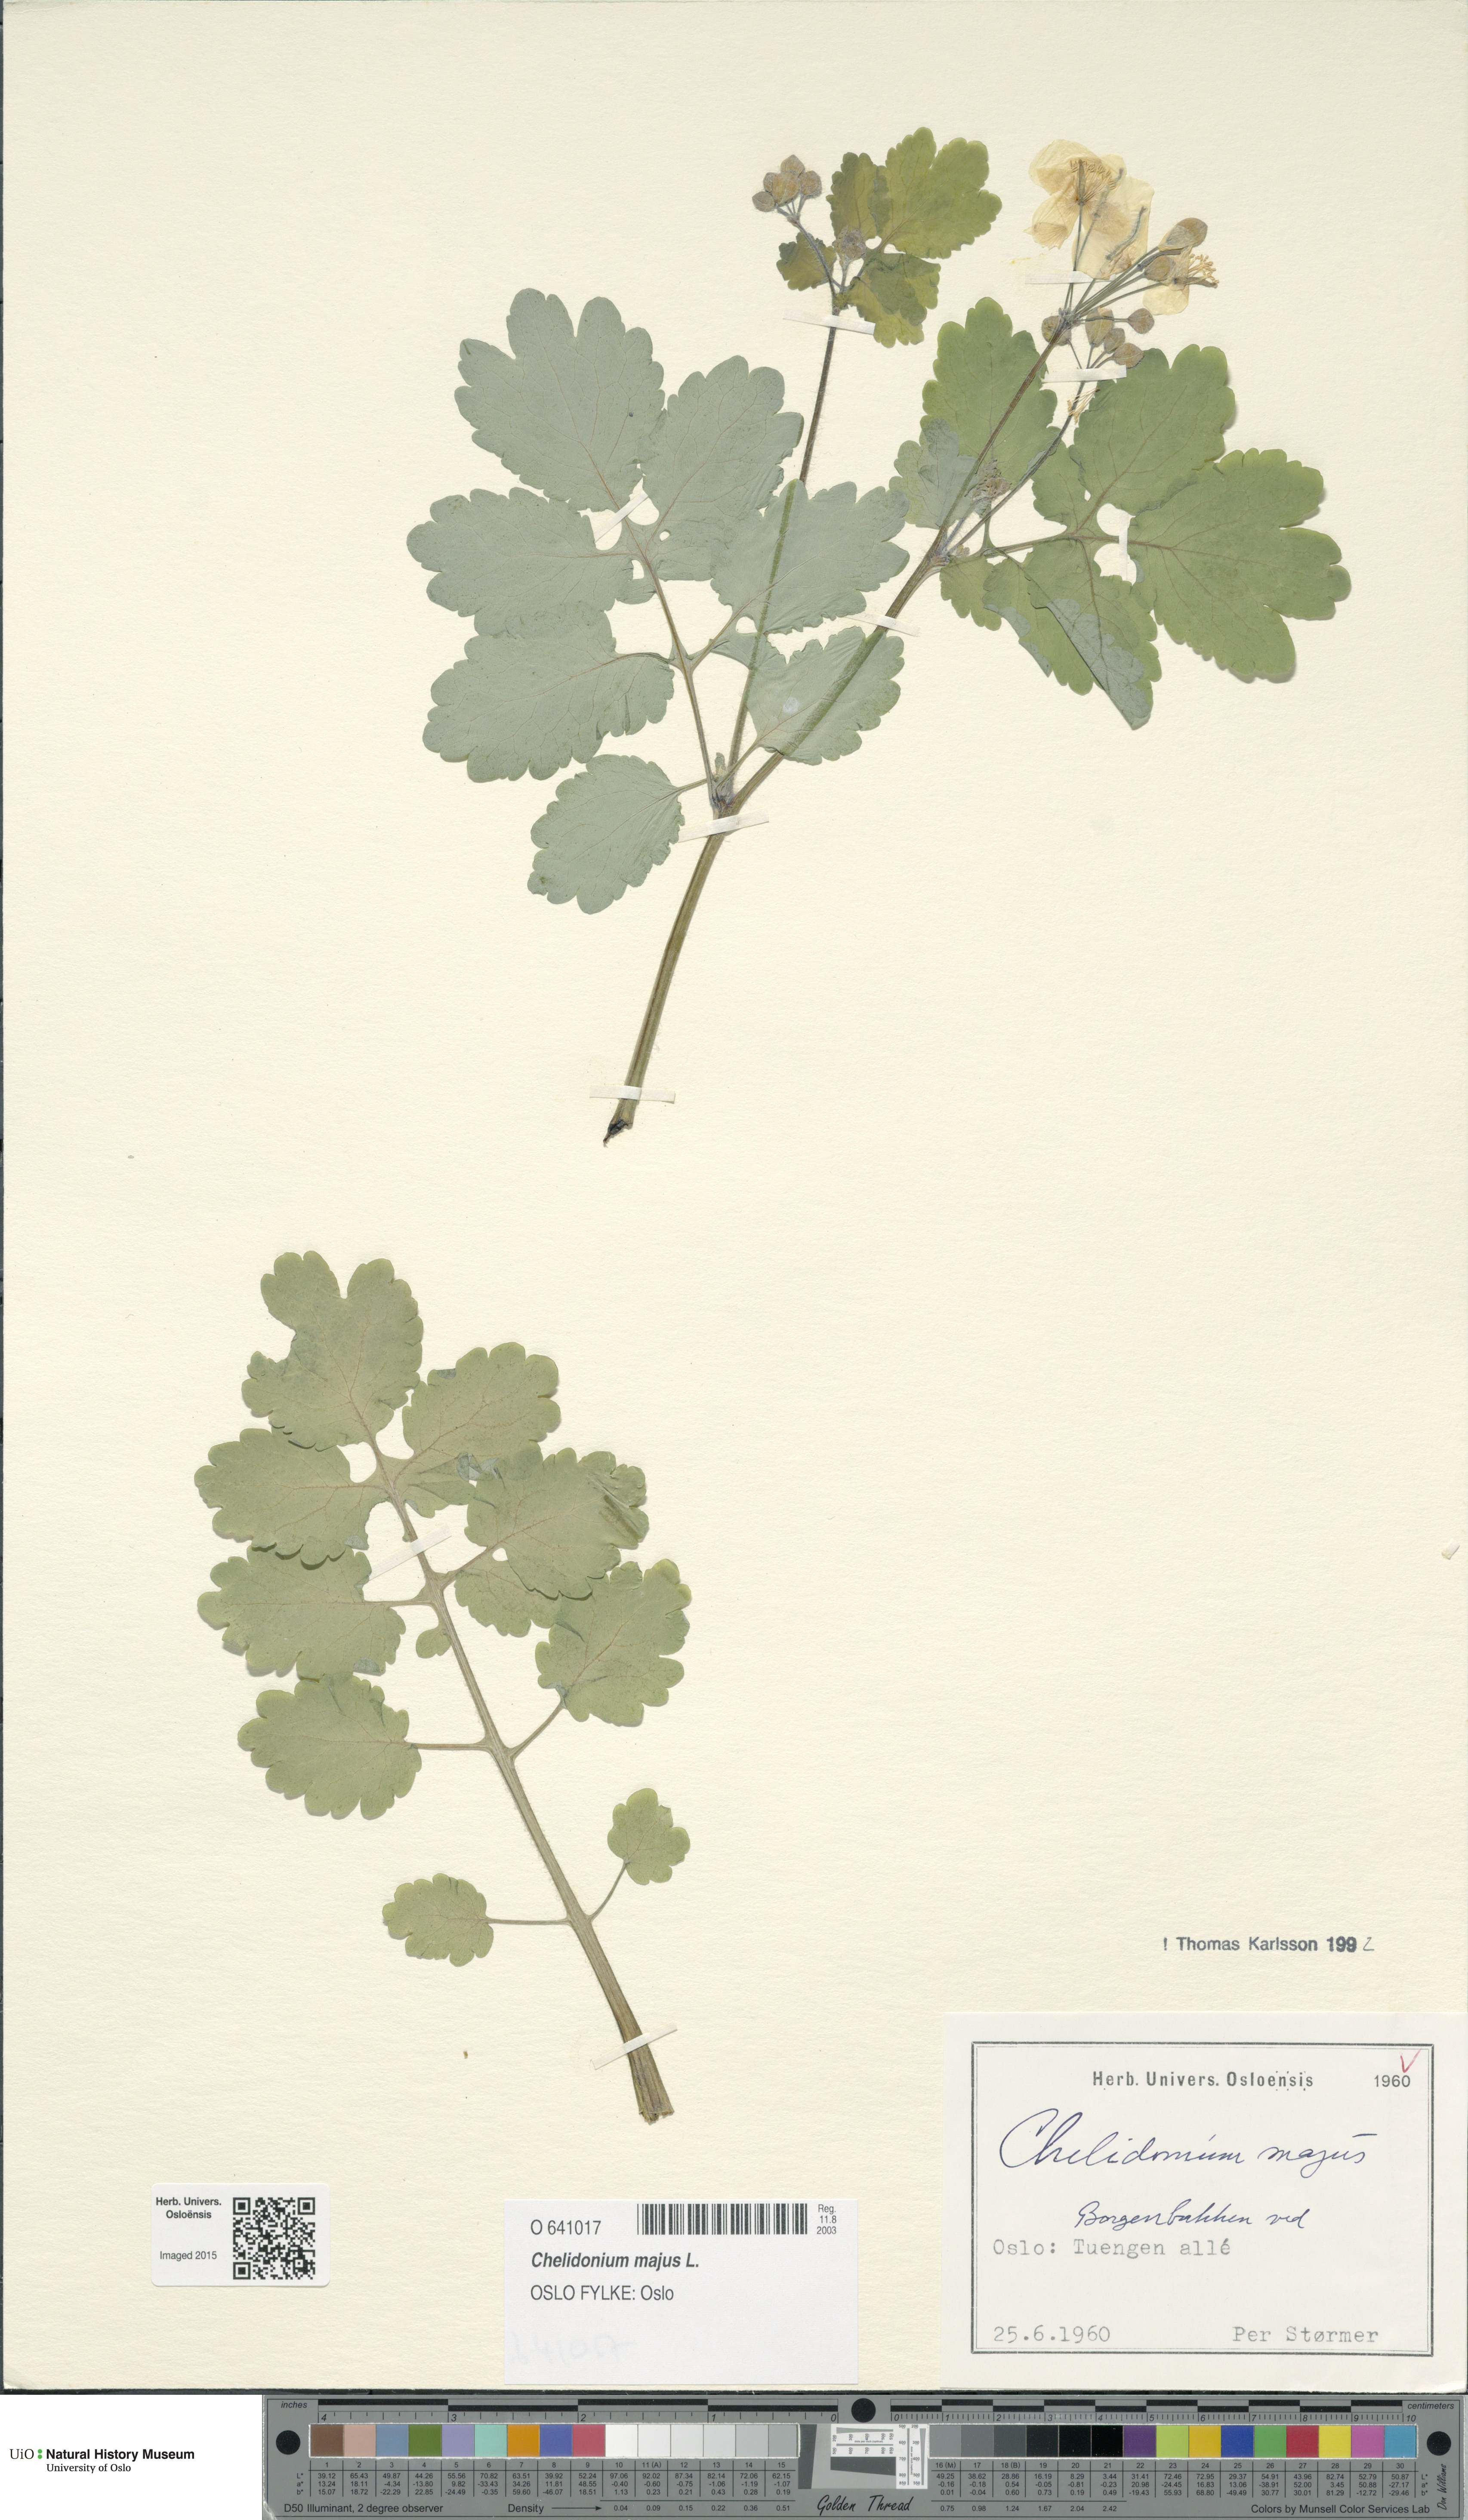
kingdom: Plantae
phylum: Tracheophyta
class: Magnoliopsida
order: Ranunculales
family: Papaveraceae
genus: Chelidonium
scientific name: Chelidonium majus
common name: Greater celandine
